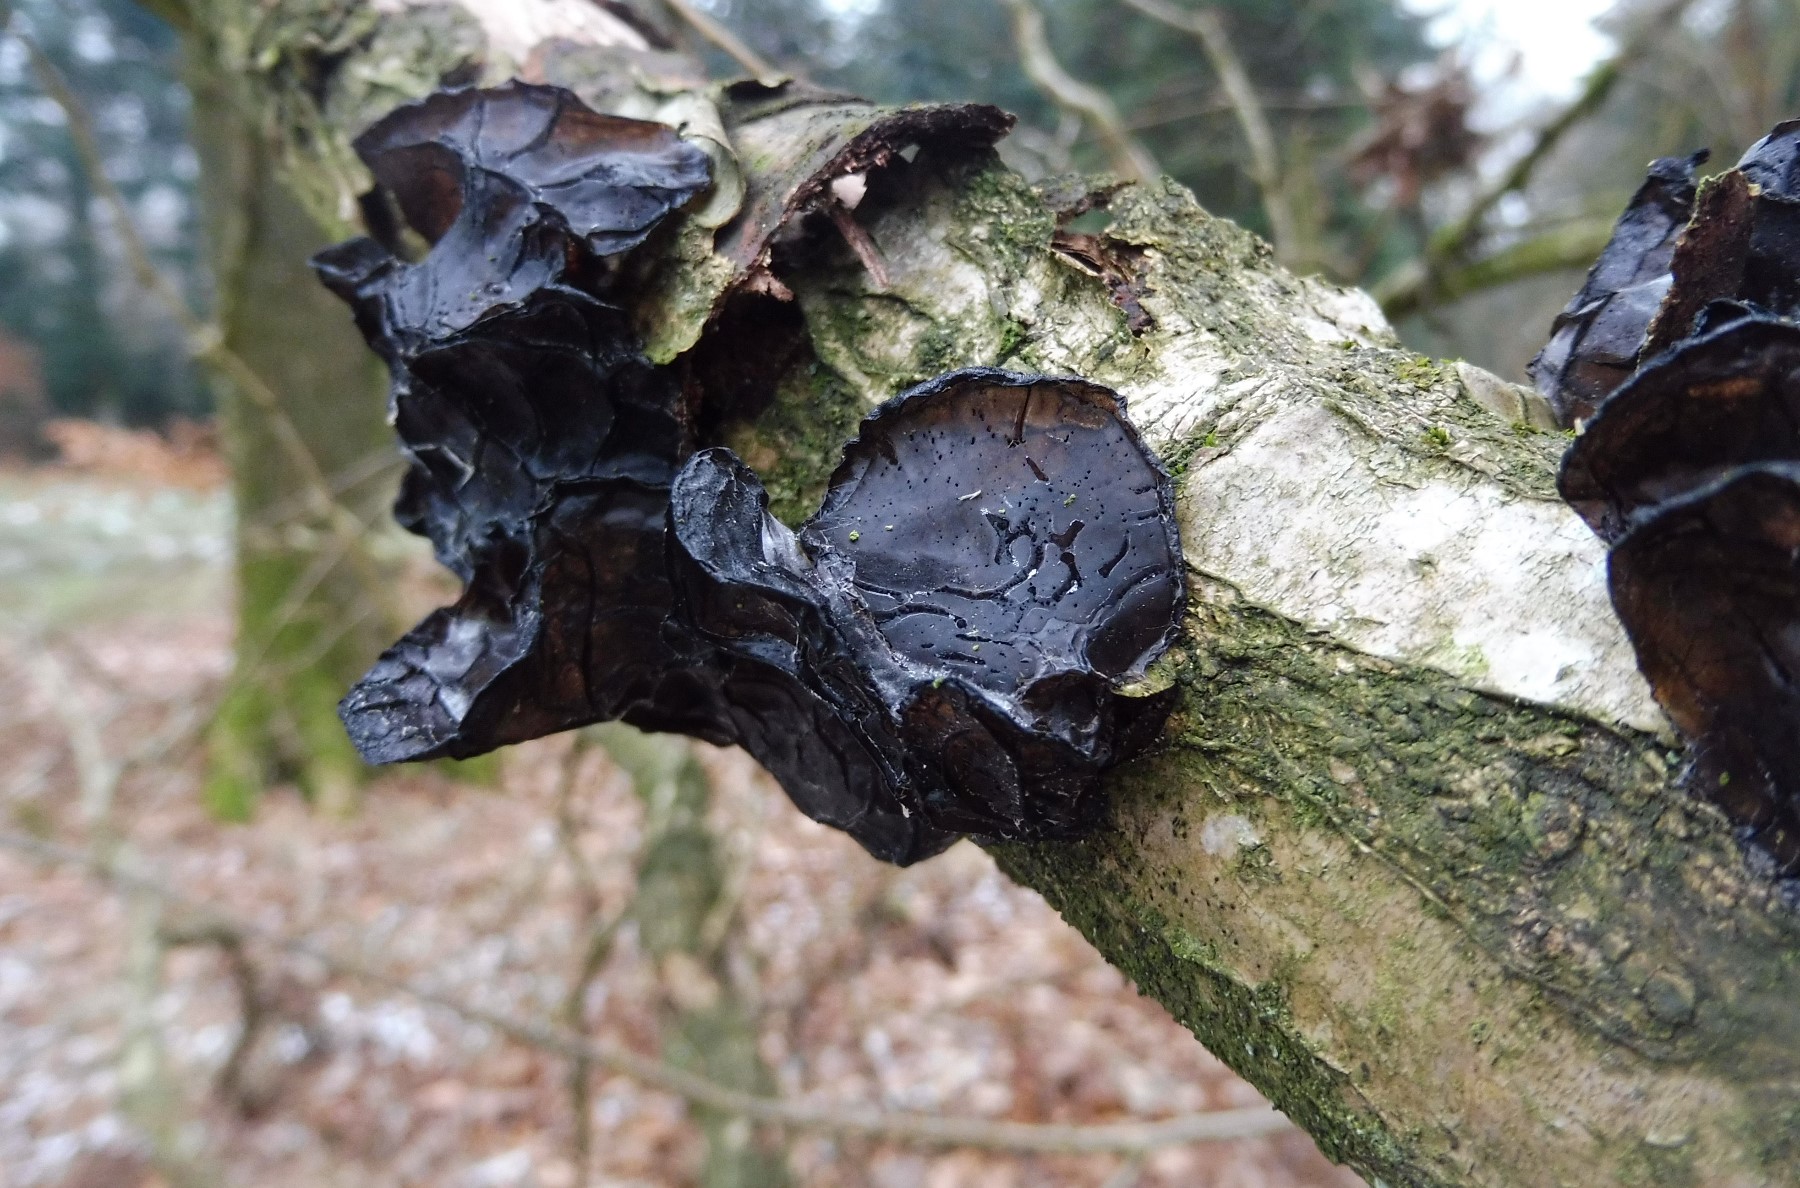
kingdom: Fungi
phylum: Basidiomycota
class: Agaricomycetes
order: Auriculariales
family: Auriculariaceae
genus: Exidia
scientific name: Exidia glandulosa
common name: ege-bævretop
